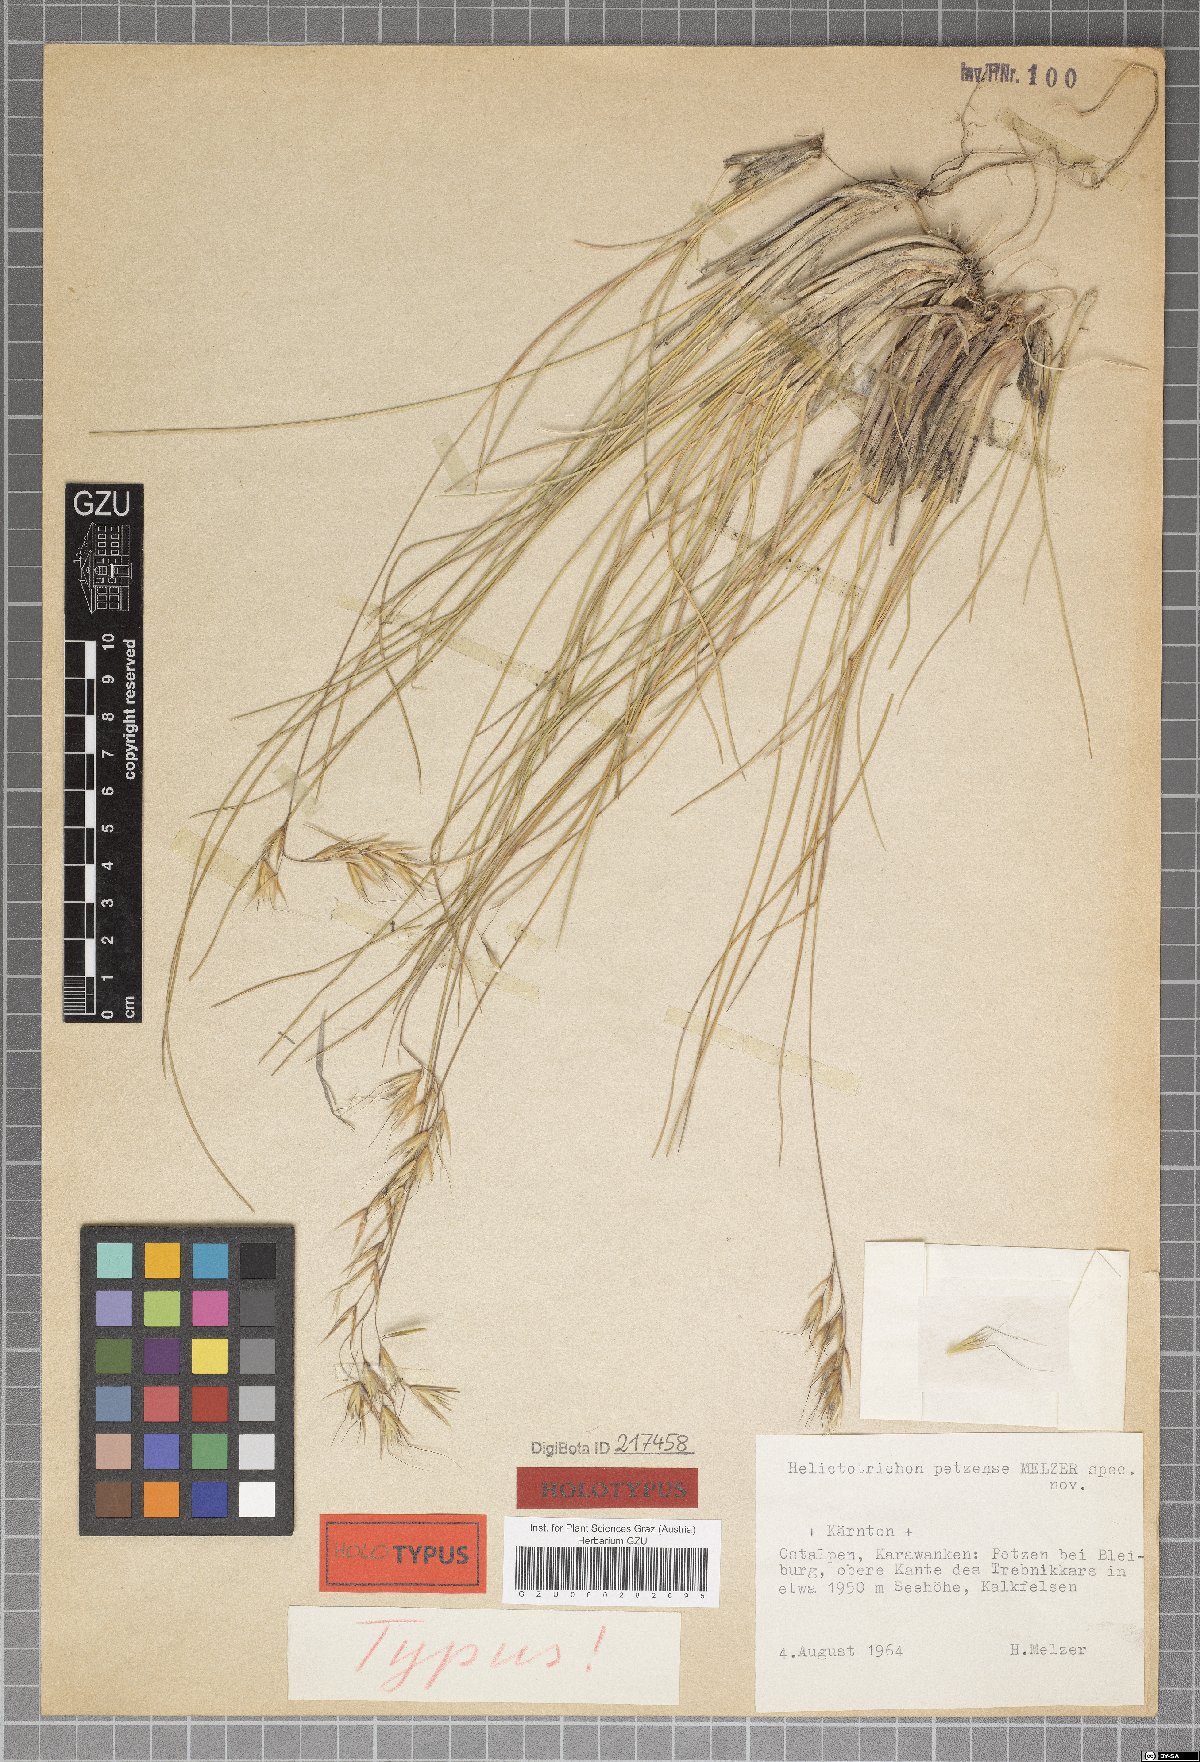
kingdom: Plantae
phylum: Tracheophyta
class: Liliopsida
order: Poales
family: Poaceae
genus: Helictotrichon
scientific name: Helictotrichon petzense
